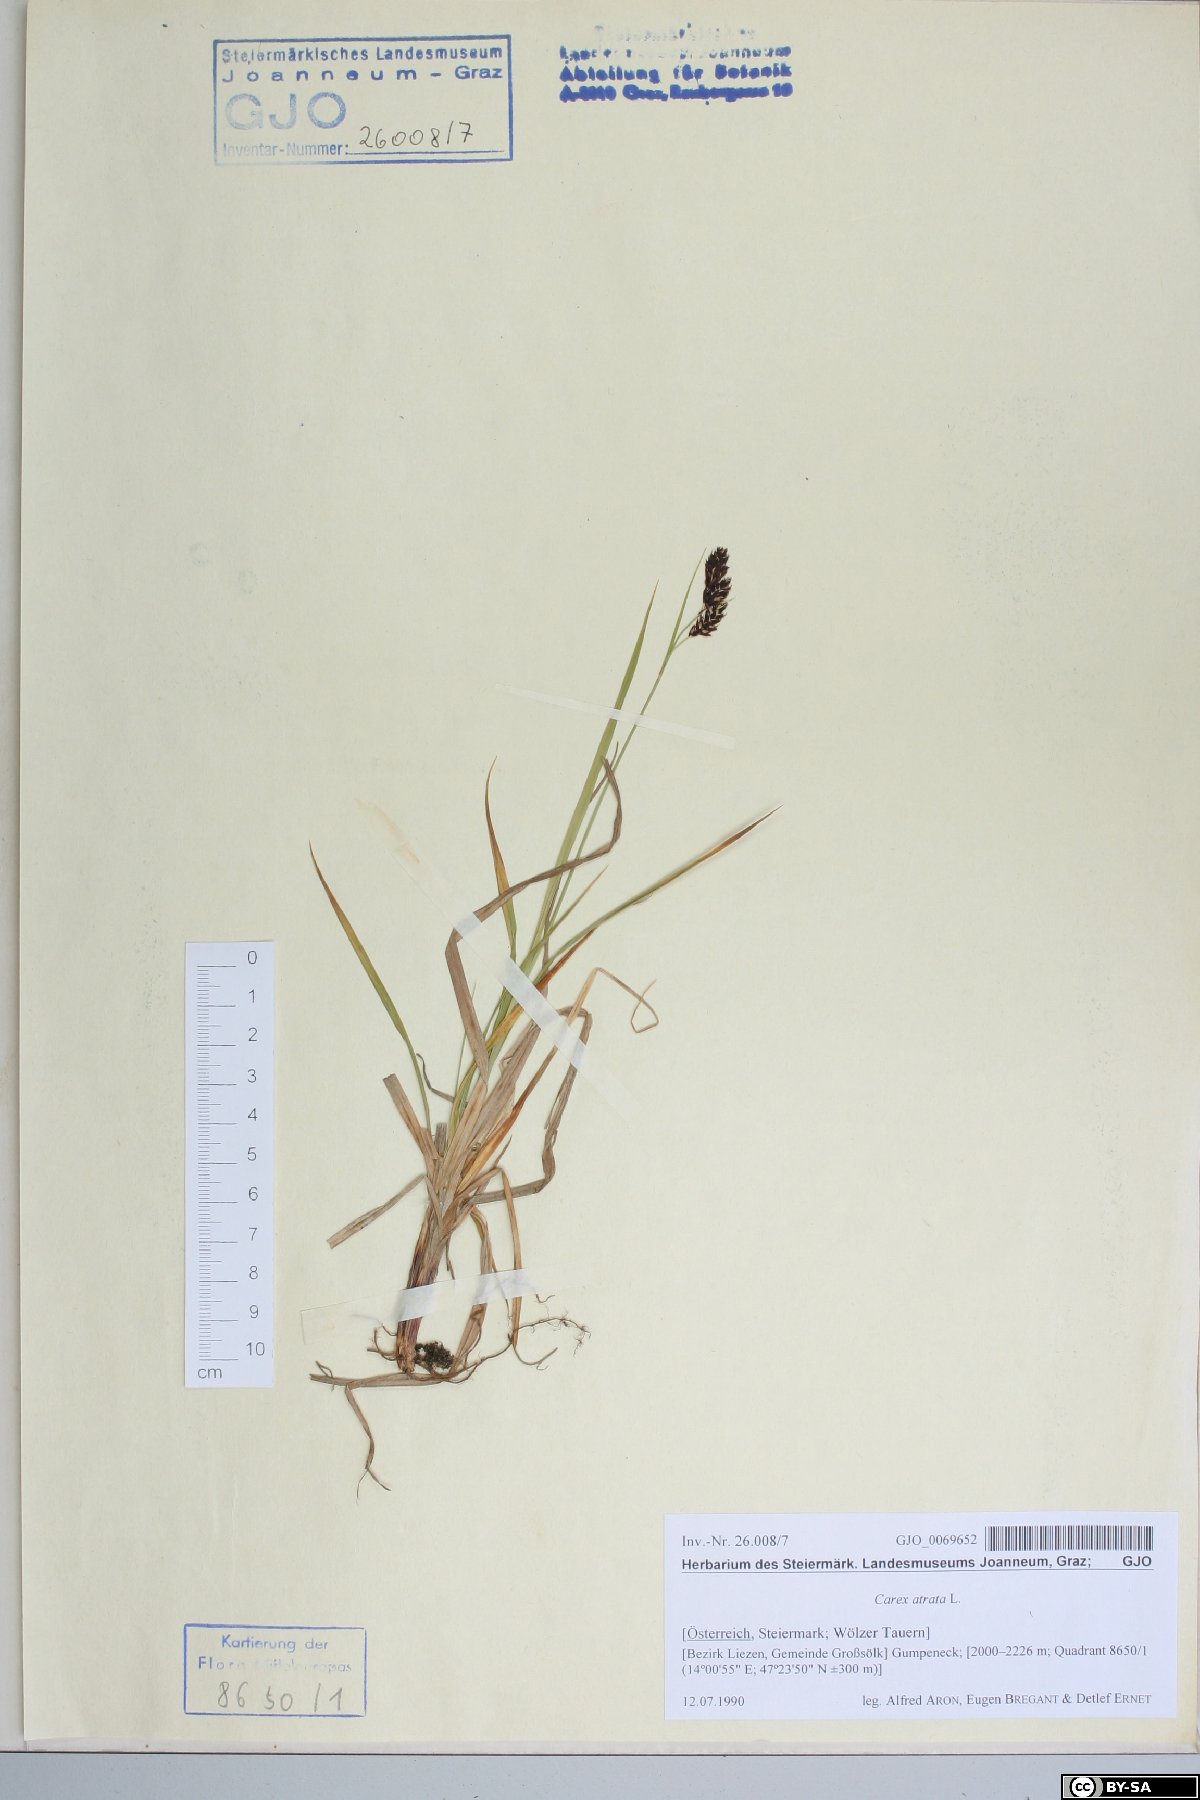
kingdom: Plantae
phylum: Tracheophyta
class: Liliopsida
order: Poales
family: Cyperaceae
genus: Carex
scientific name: Carex atrata
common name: Black alpine sedge
